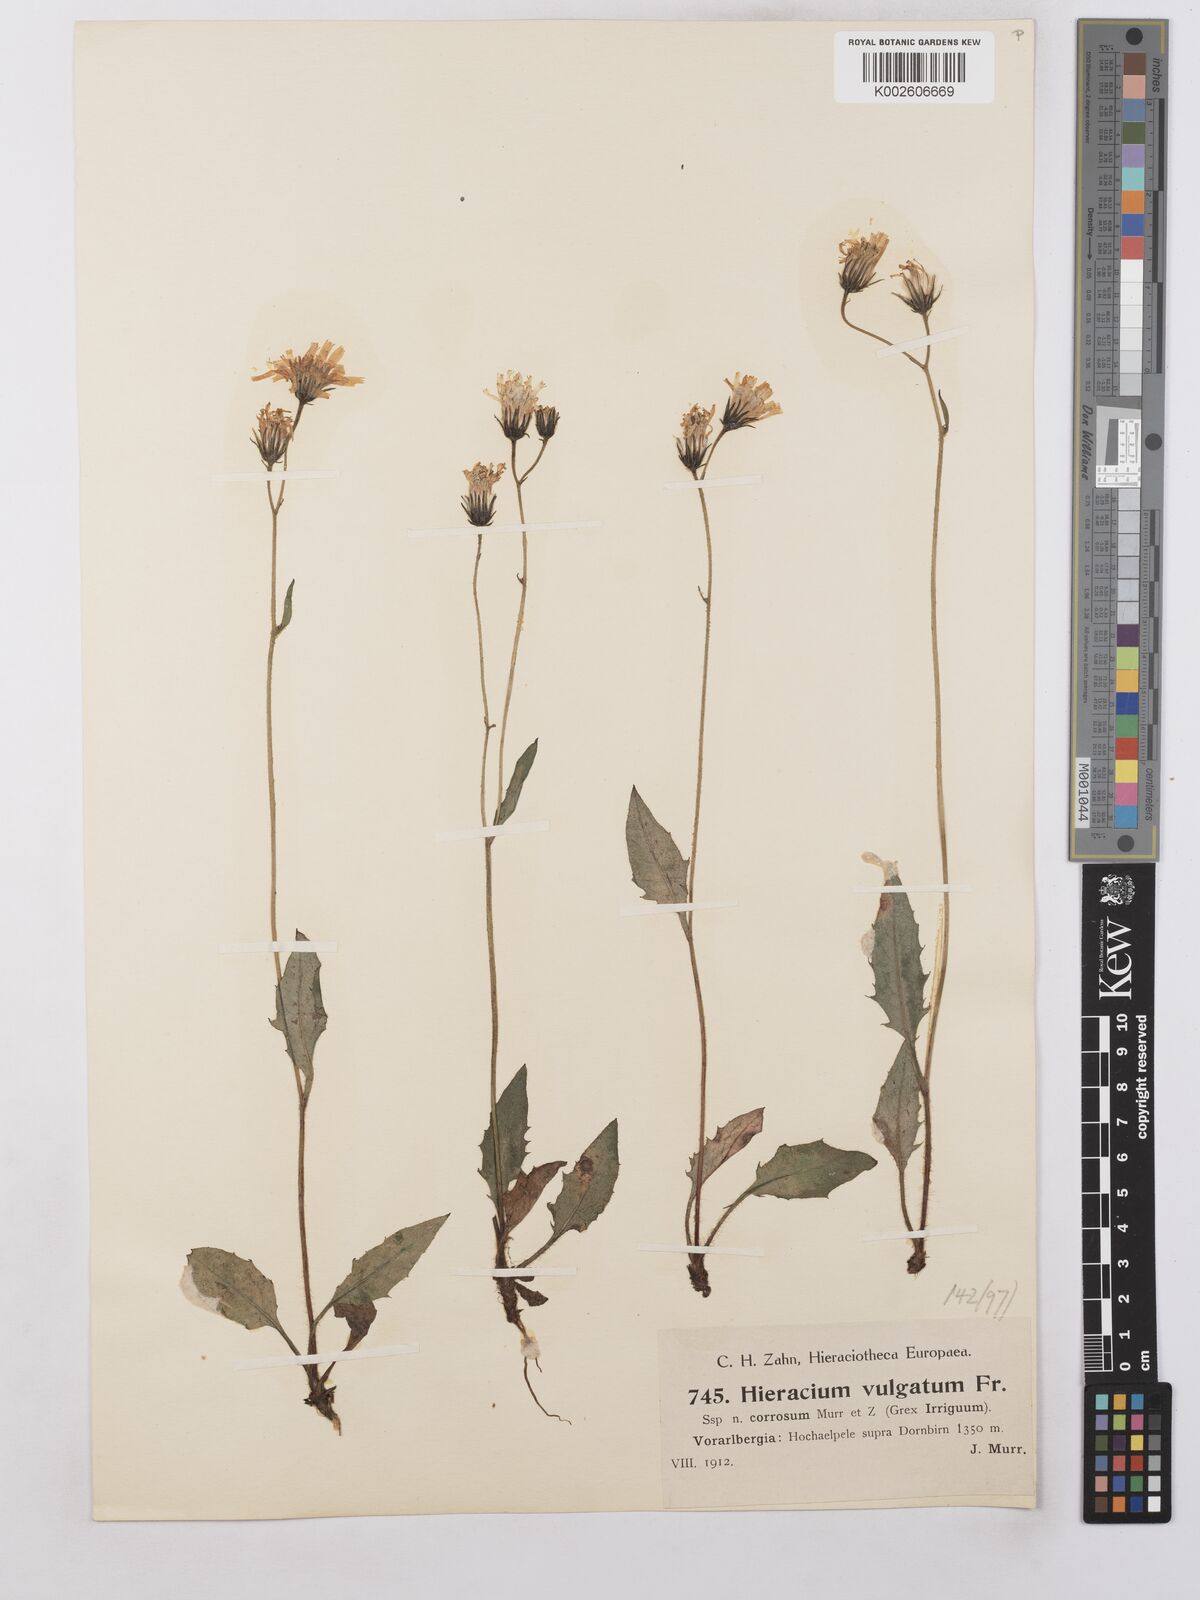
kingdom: Plantae
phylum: Tracheophyta
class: Magnoliopsida
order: Asterales
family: Asteraceae
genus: Hieracium
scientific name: Hieracium lachenalii
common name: Common hawkweed
